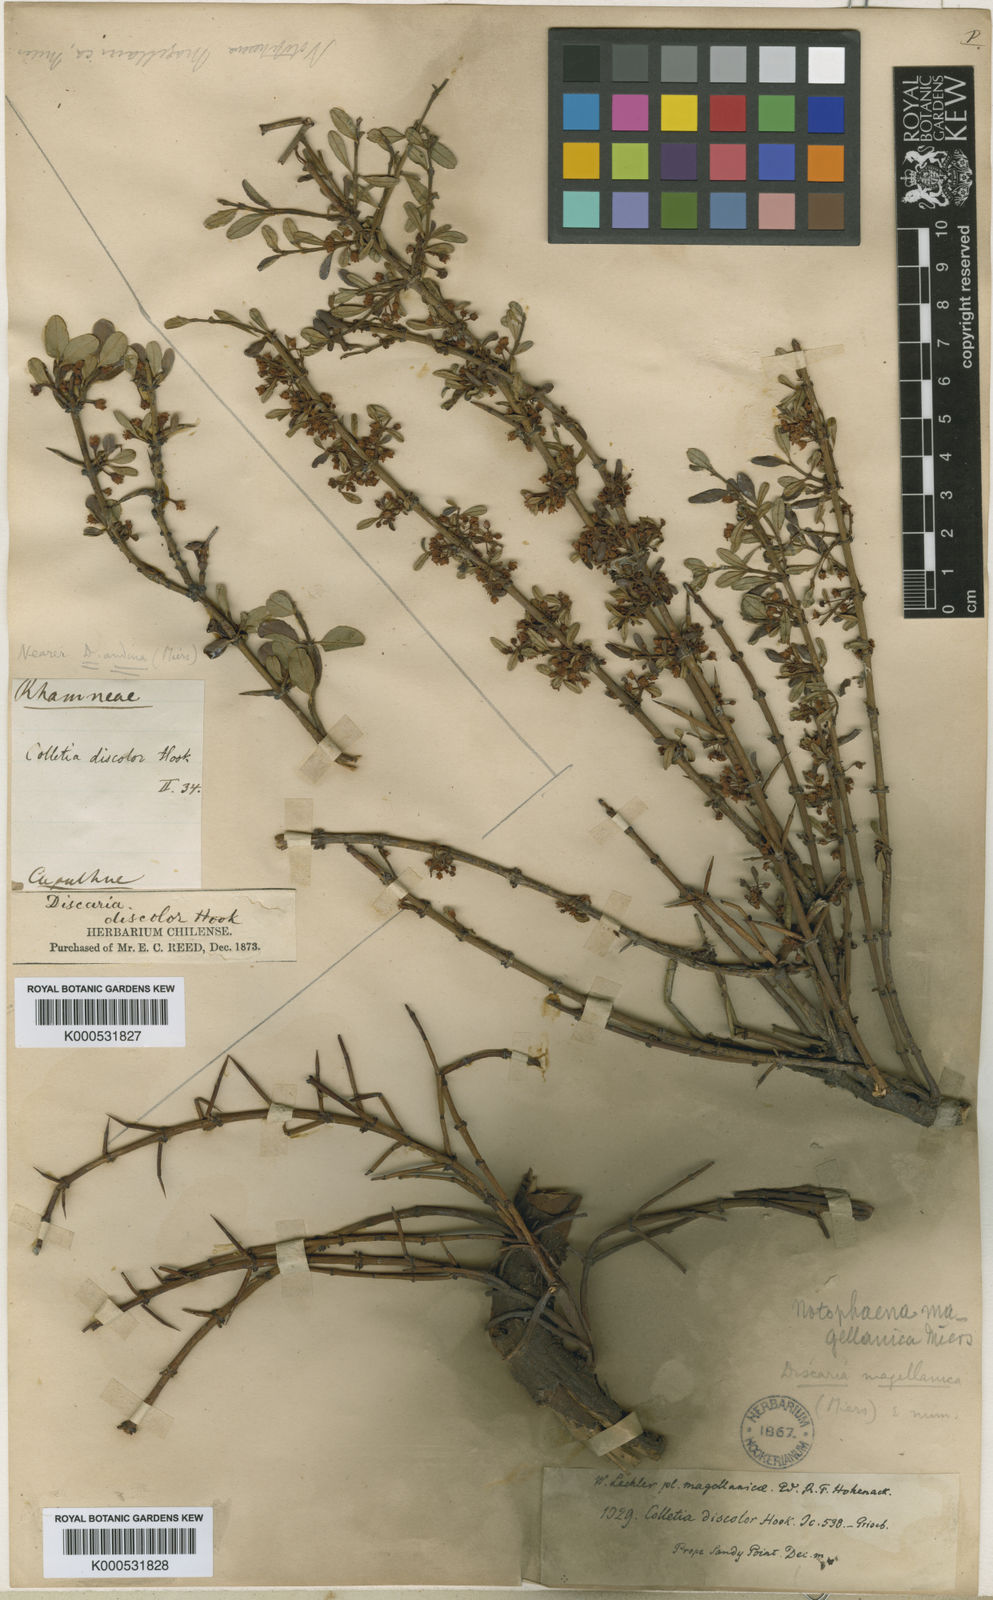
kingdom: Plantae
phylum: Tracheophyta
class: Magnoliopsida
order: Rosales
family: Rhamnaceae
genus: Discaria
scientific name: Discaria chacaye
